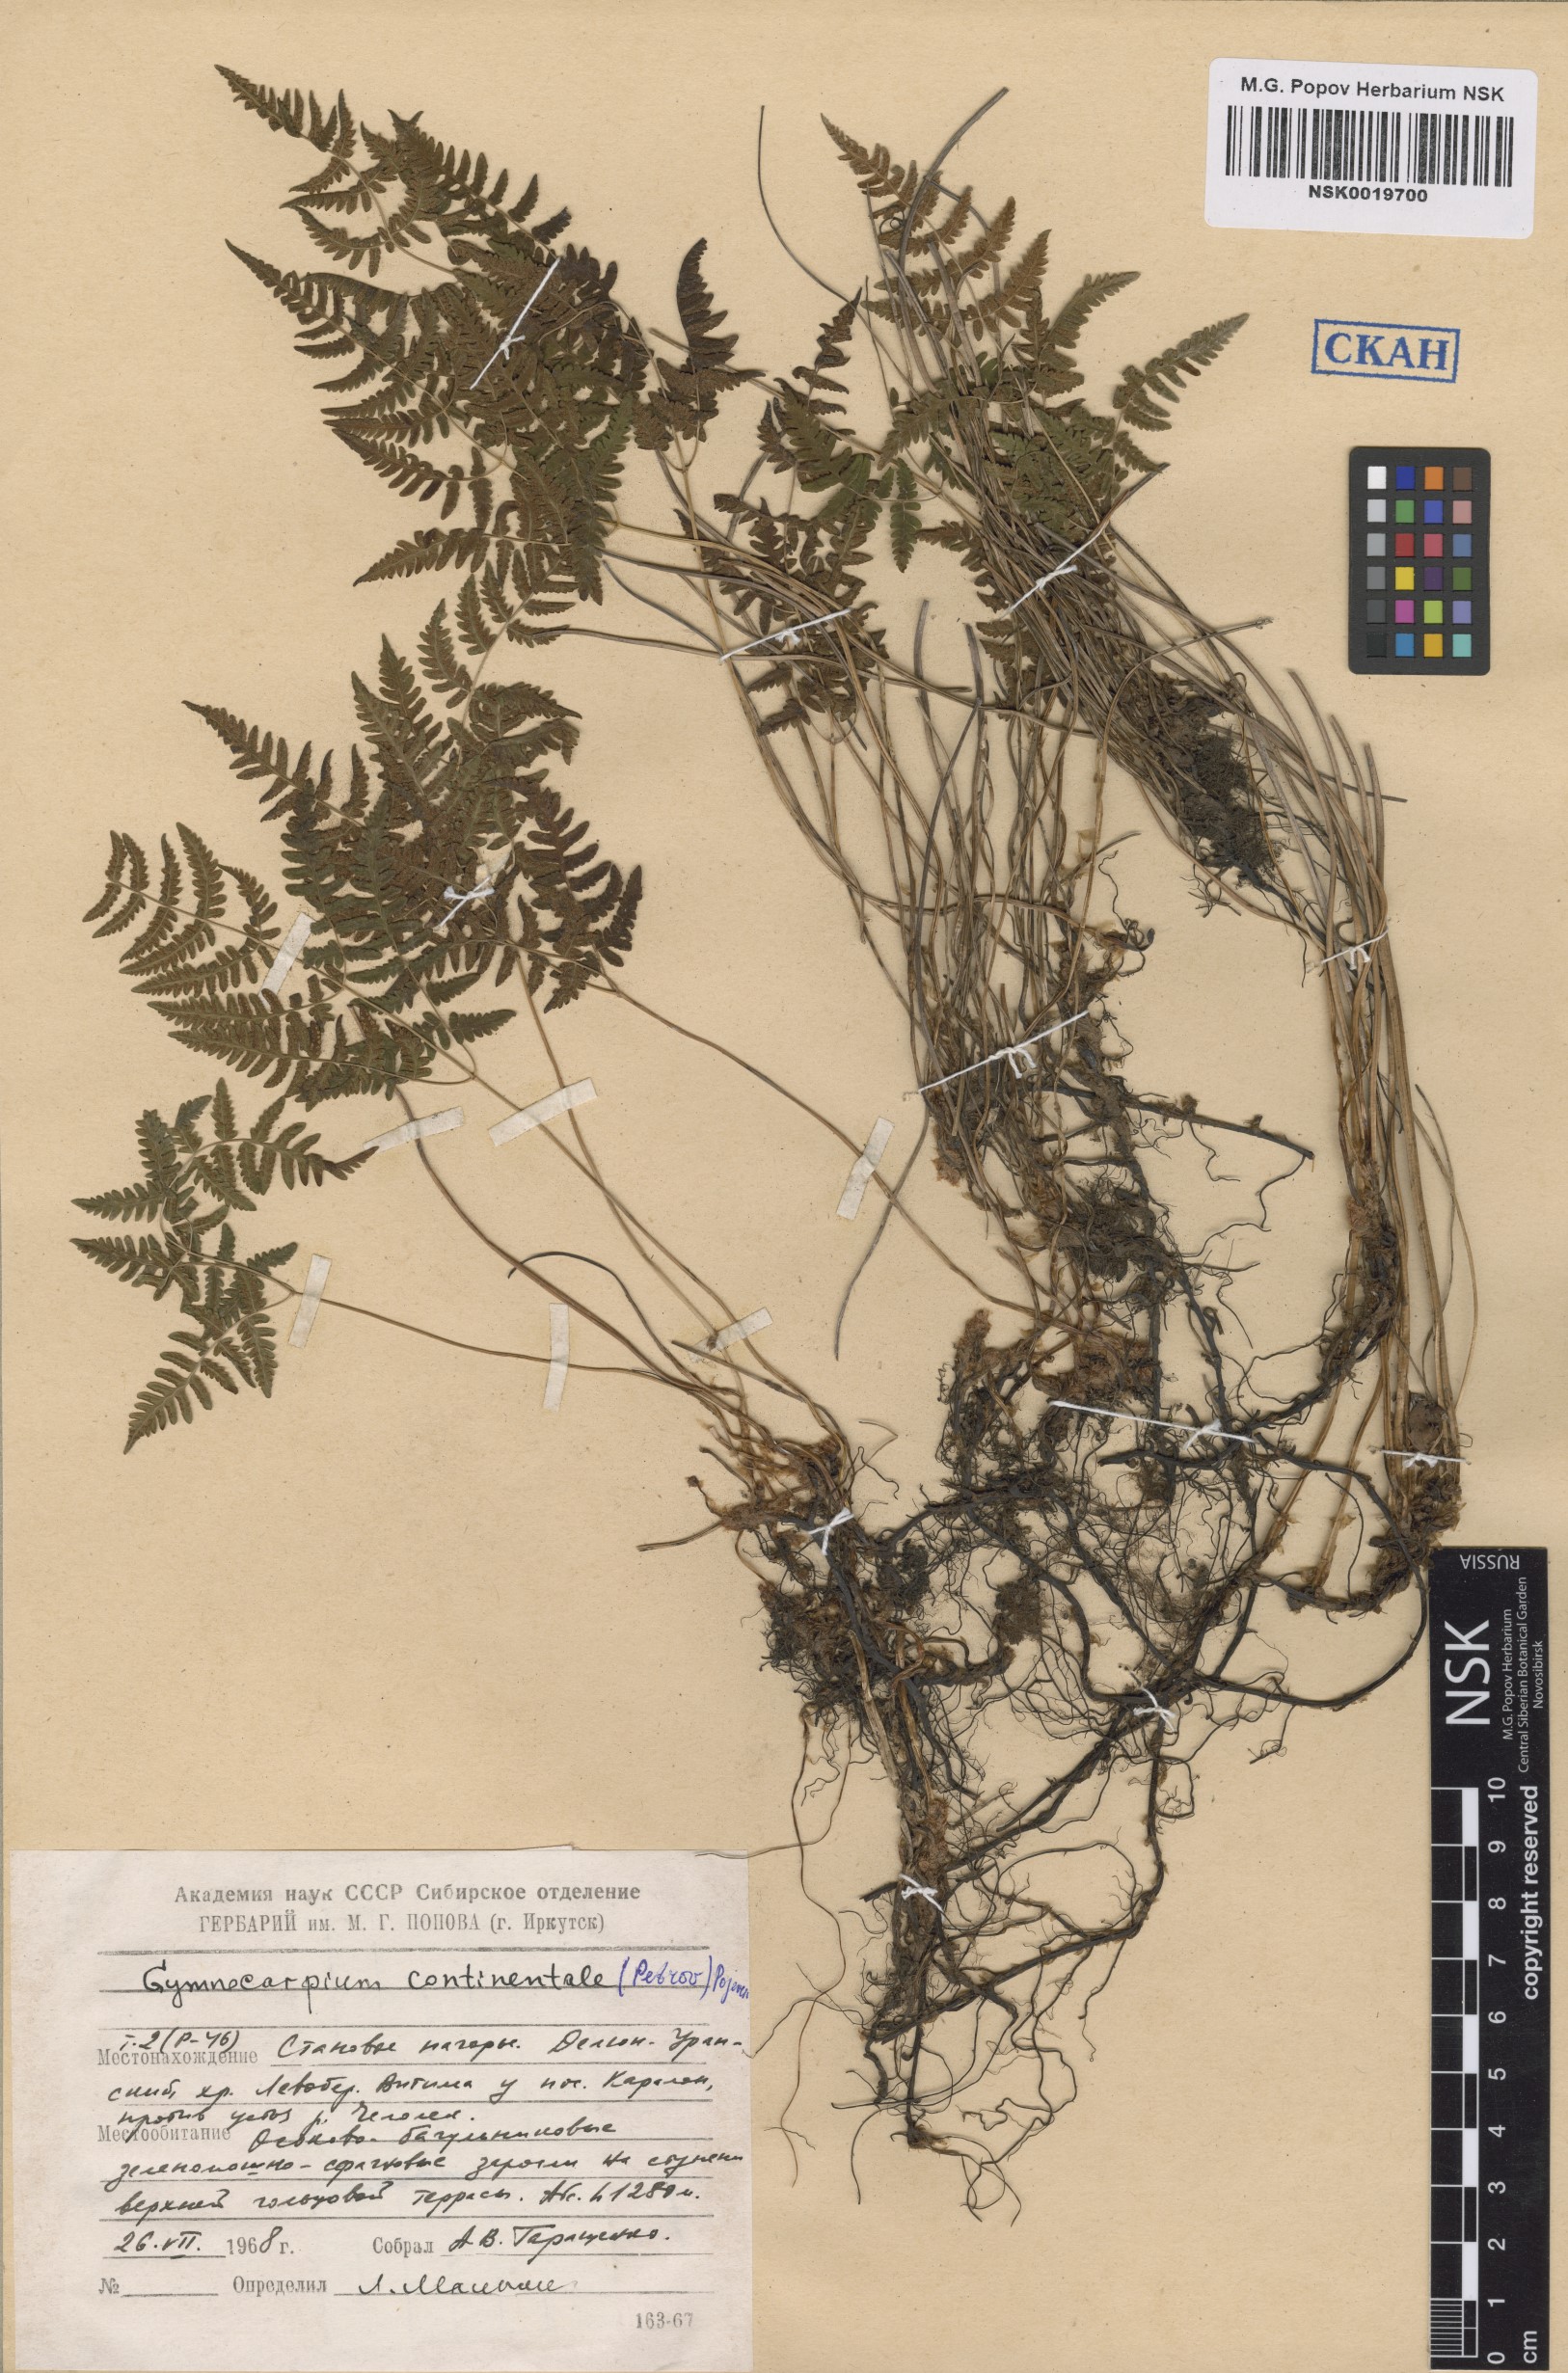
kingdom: Plantae
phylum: Tracheophyta
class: Polypodiopsida
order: Polypodiales
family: Cystopteridaceae
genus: Gymnocarpium
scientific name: Gymnocarpium continentale
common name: Asian oak fern
